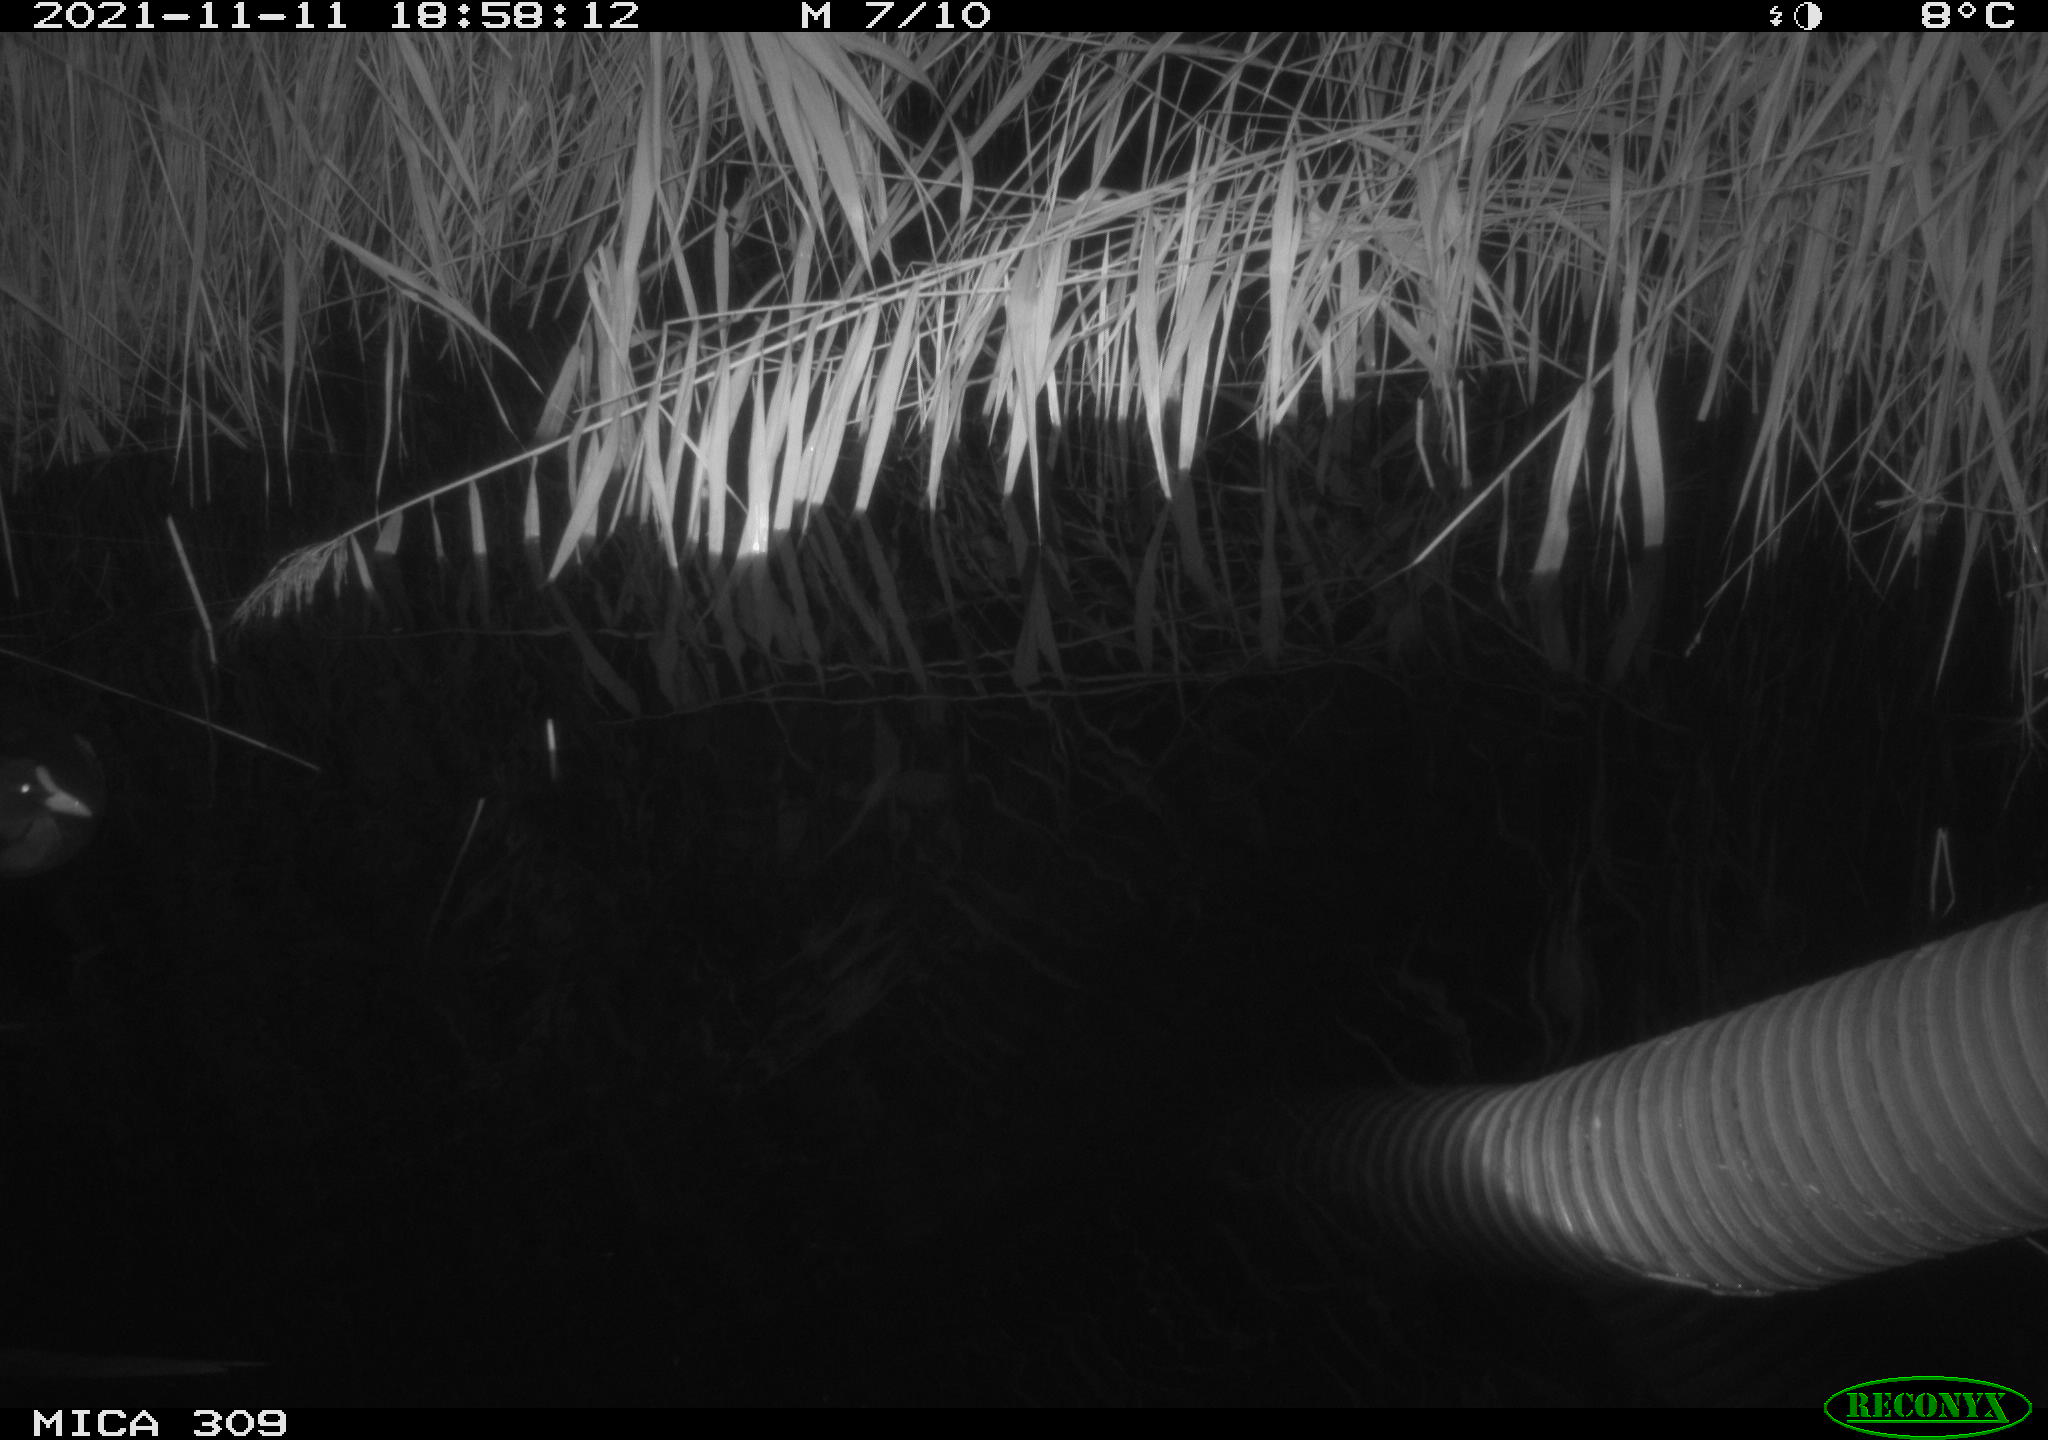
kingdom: Animalia
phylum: Chordata
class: Aves
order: Gruiformes
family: Rallidae
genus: Gallinula
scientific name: Gallinula chloropus
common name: Common moorhen
